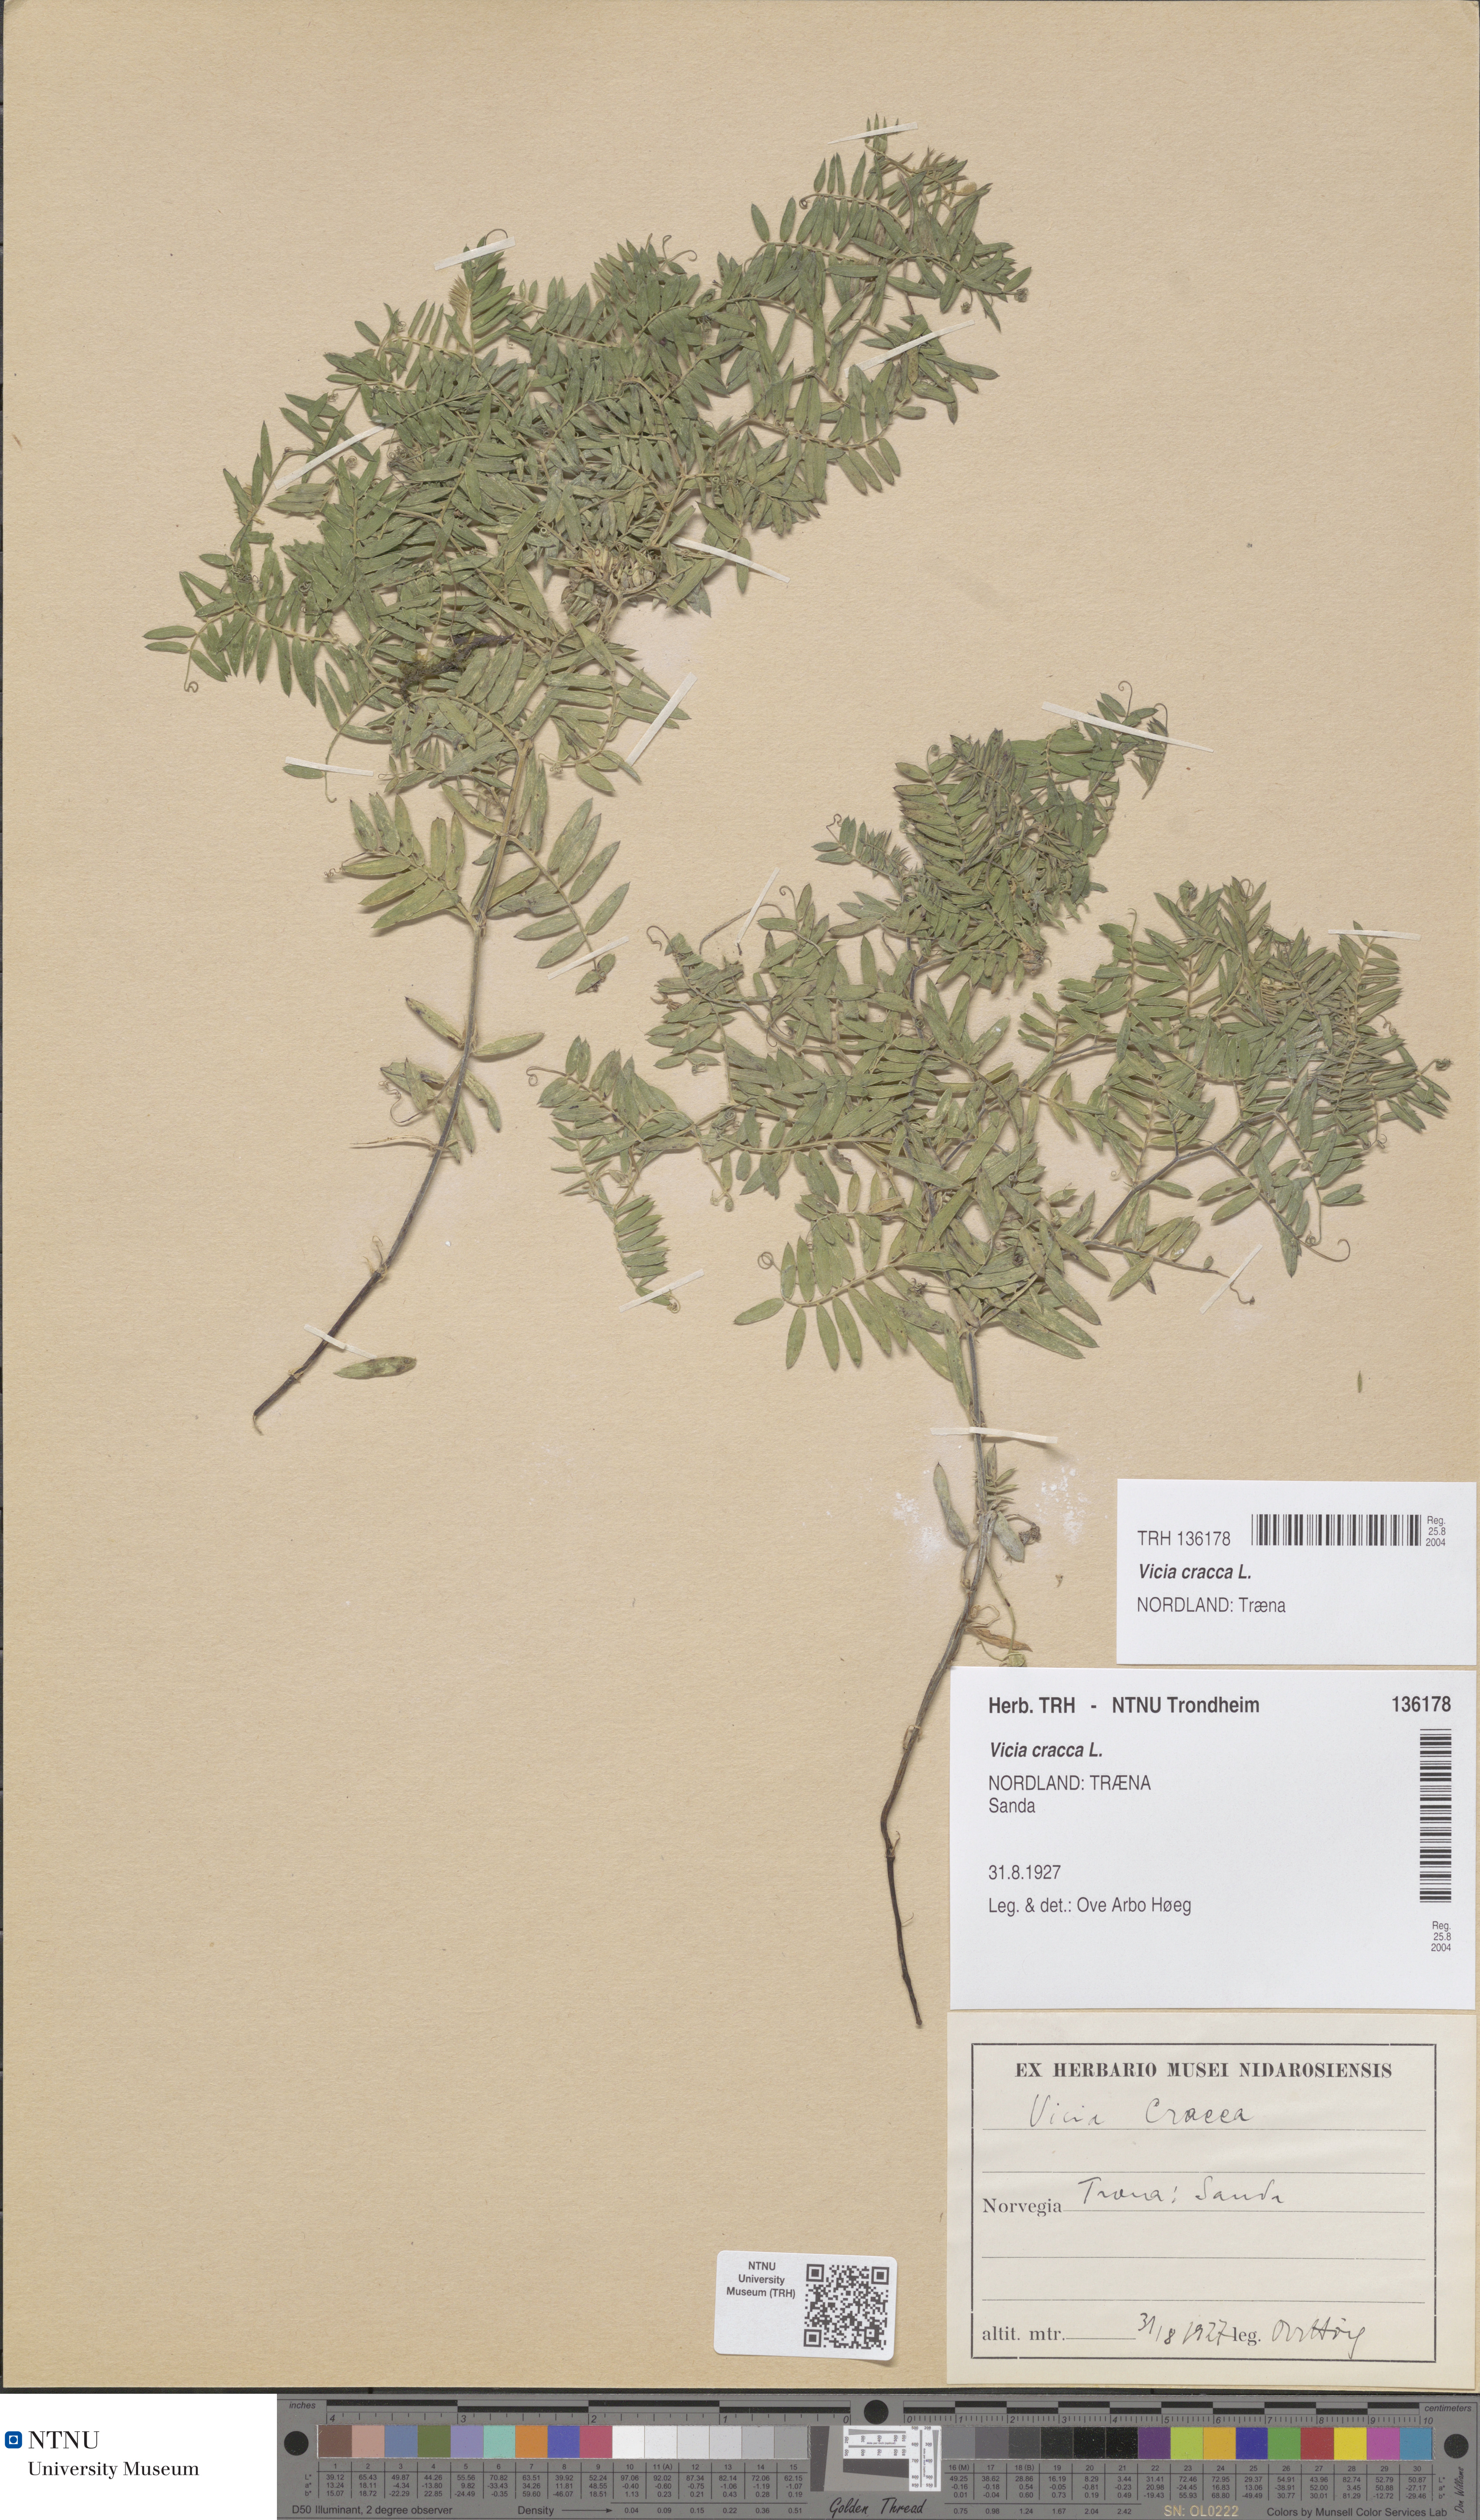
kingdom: Plantae
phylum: Tracheophyta
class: Magnoliopsida
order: Fabales
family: Fabaceae
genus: Vicia
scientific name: Vicia cracca
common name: Bird vetch
